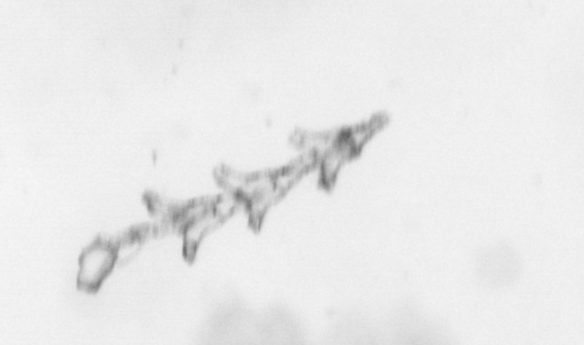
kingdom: Animalia
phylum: Cnidaria
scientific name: Cnidaria
